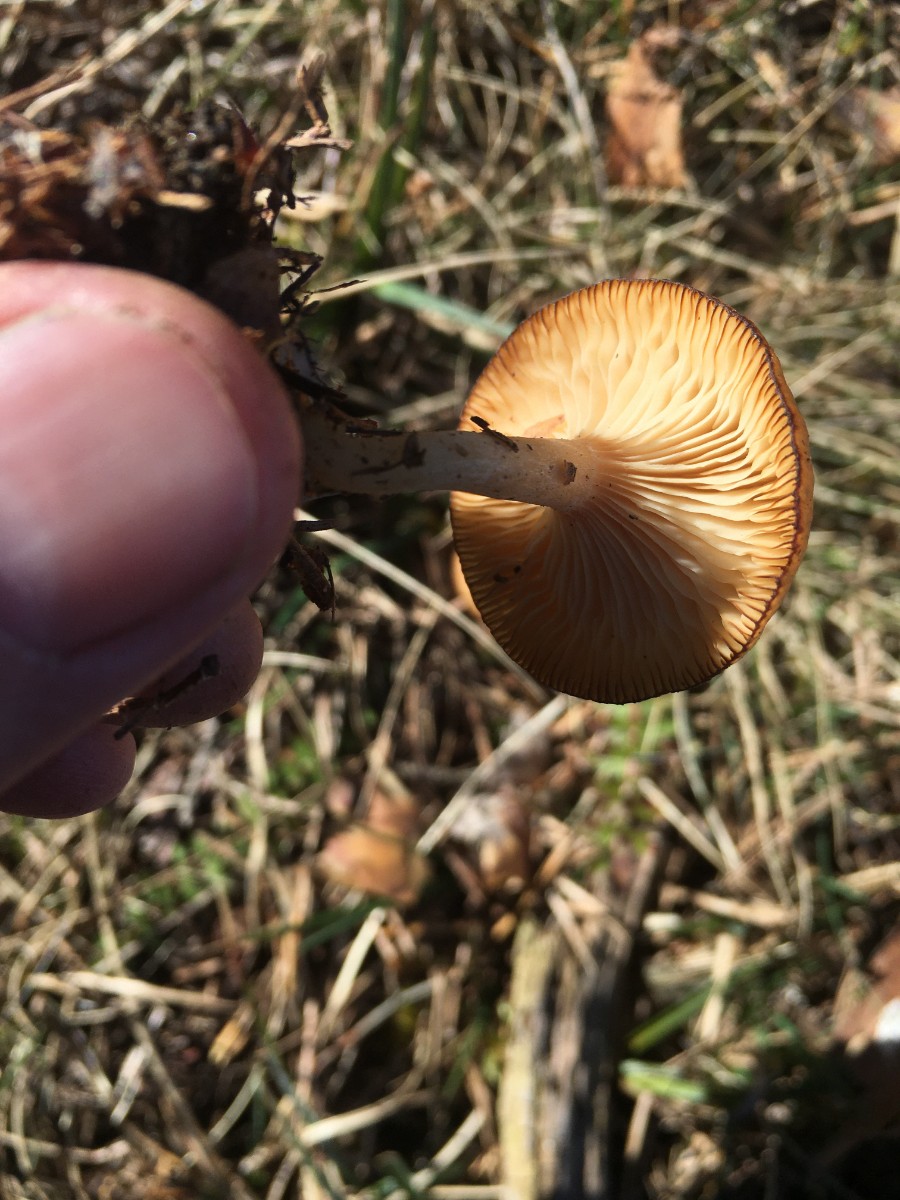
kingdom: Fungi
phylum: Basidiomycota
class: Agaricomycetes
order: Agaricales
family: Tricholomataceae
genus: Rhizocybe
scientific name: Rhizocybe vermicularis
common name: hyfestrengs-tragthat
